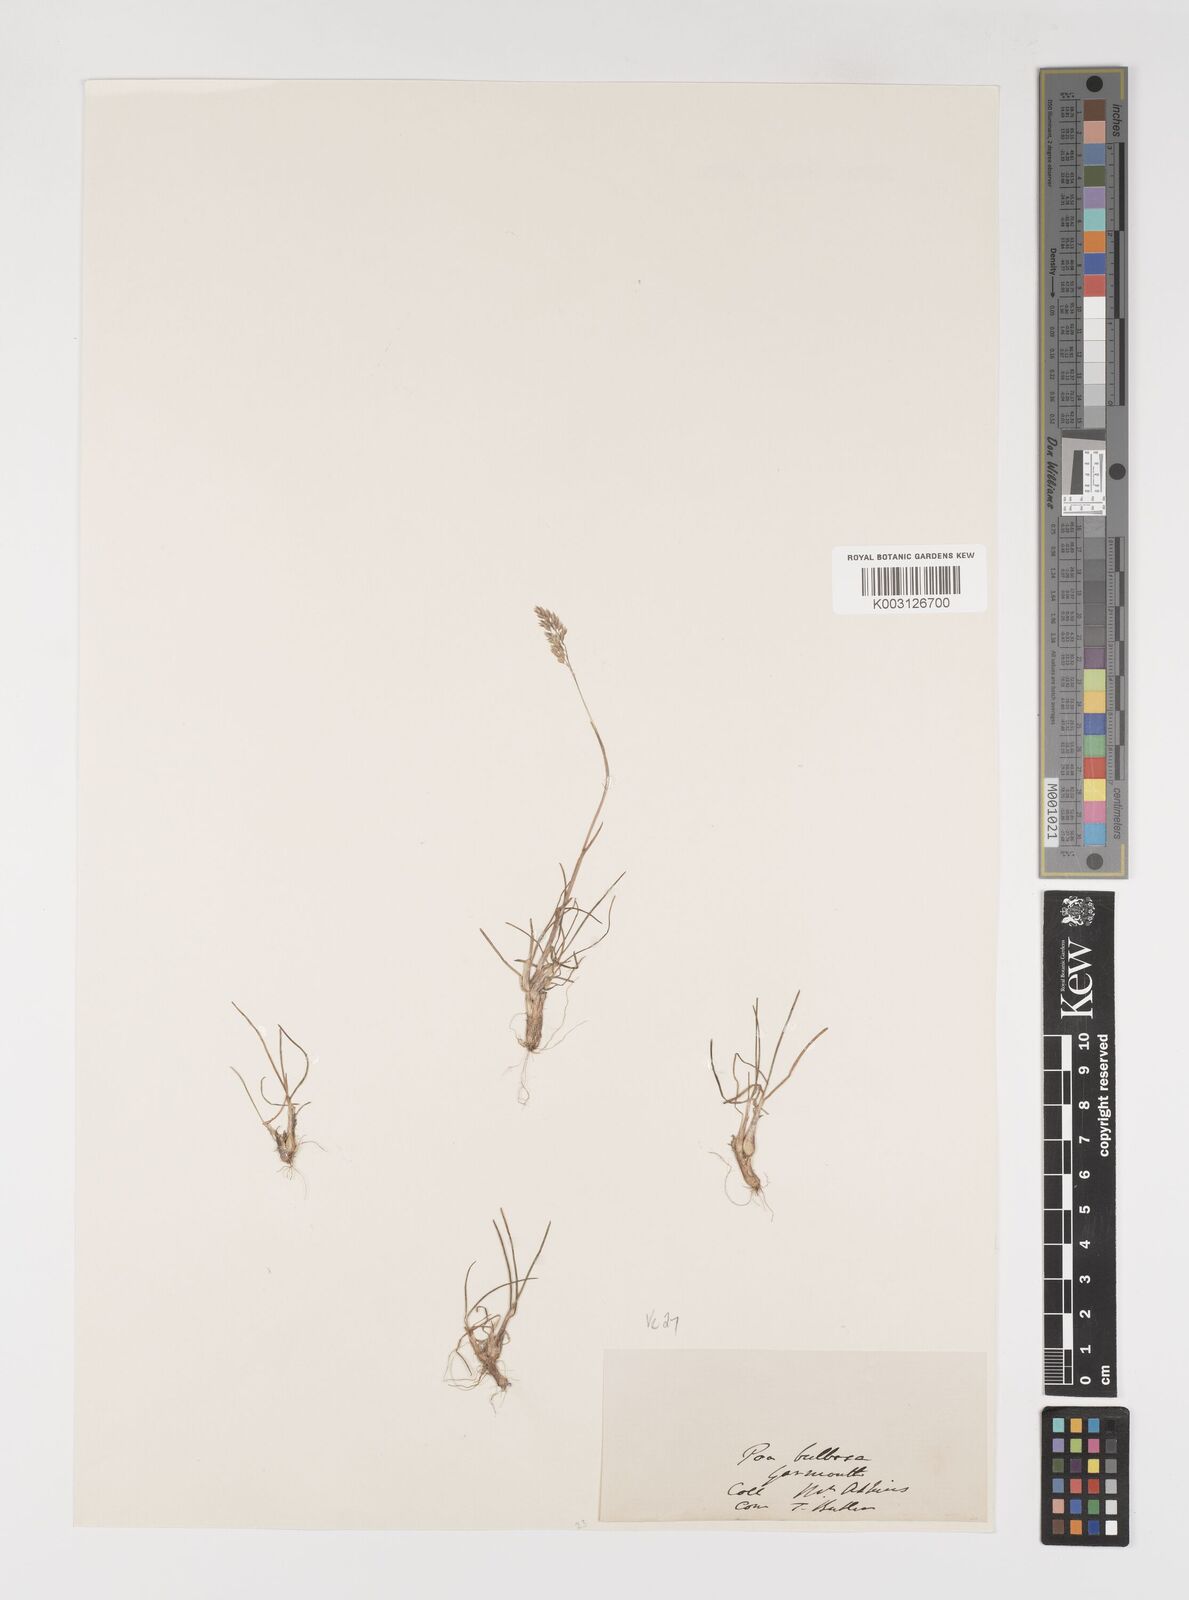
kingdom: Plantae
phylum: Tracheophyta
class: Liliopsida
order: Poales
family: Poaceae
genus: Poa
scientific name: Poa bulbosa
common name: Bulbous bluegrass
